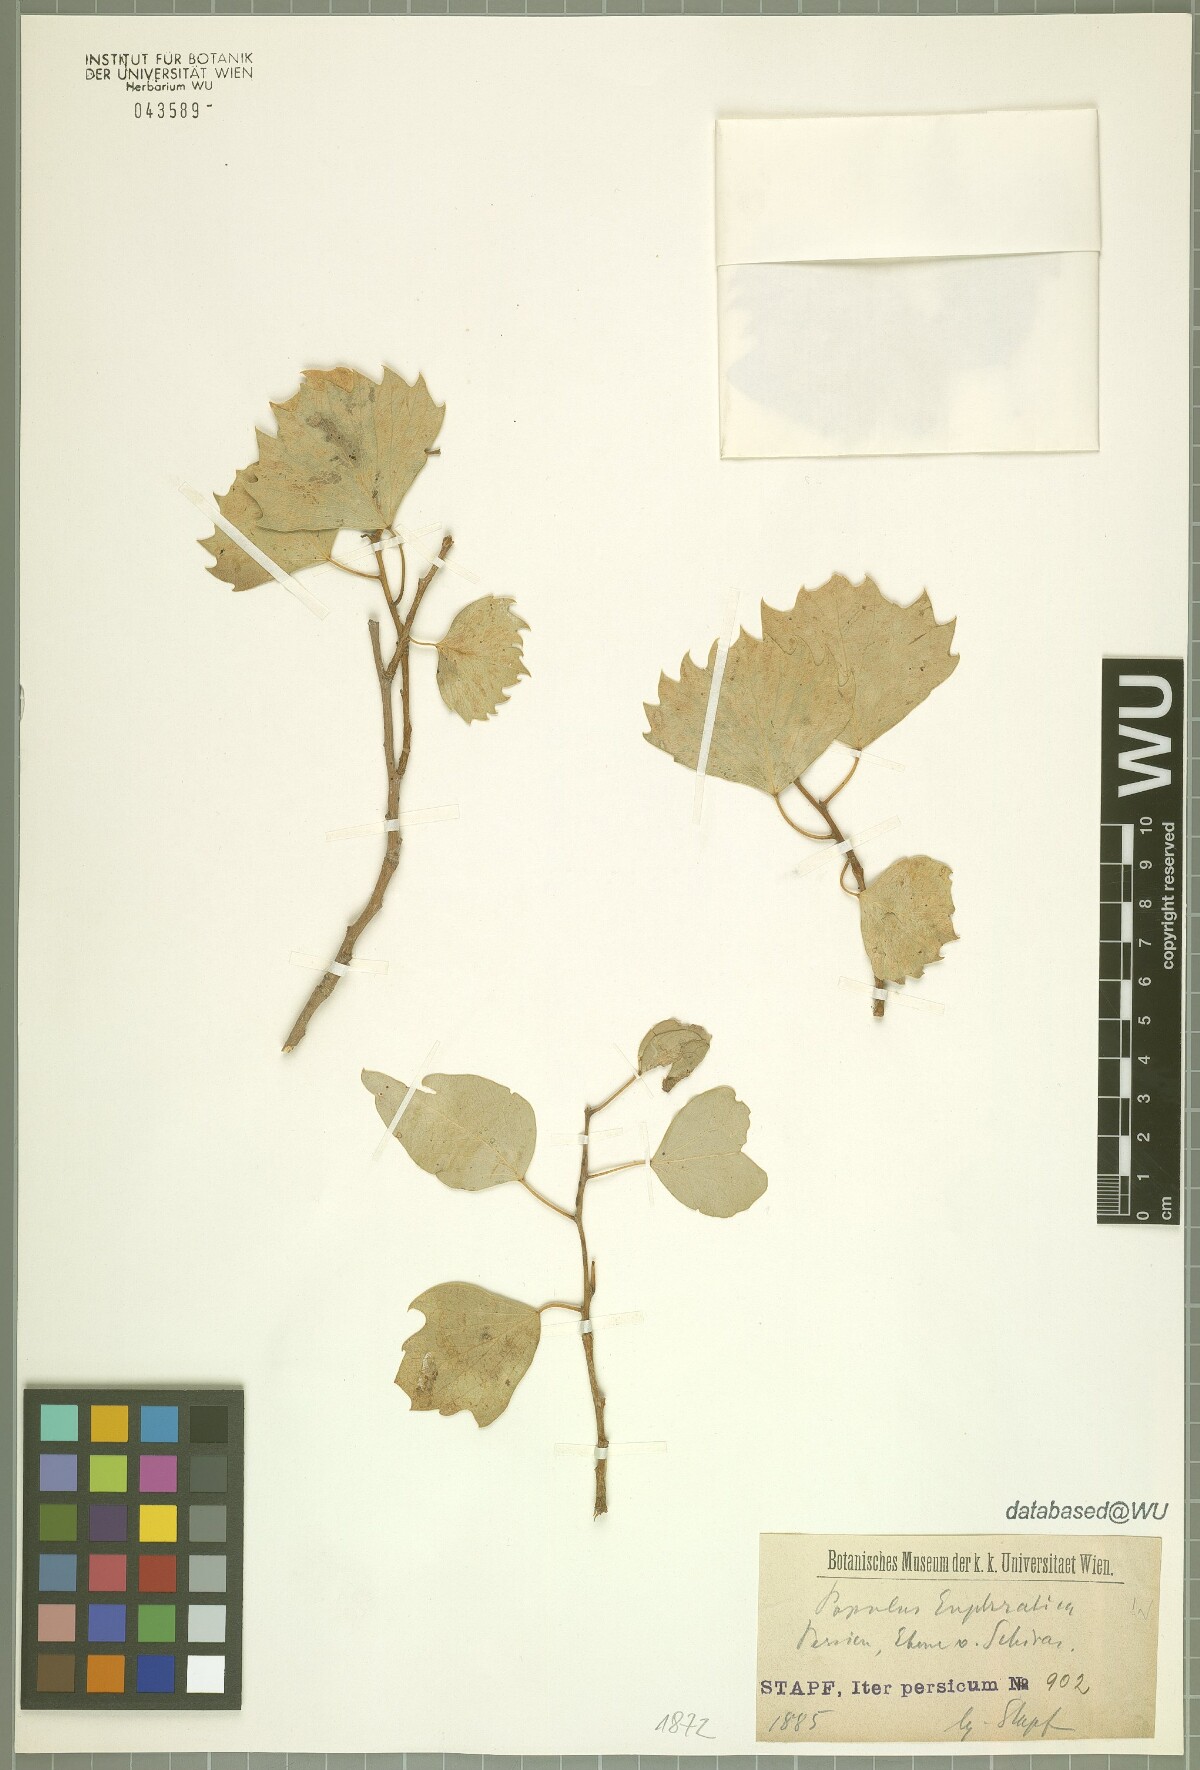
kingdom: Plantae
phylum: Tracheophyta
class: Magnoliopsida
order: Malpighiales
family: Salicaceae
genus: Populus
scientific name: Populus euphratica
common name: Euphrates poplar
